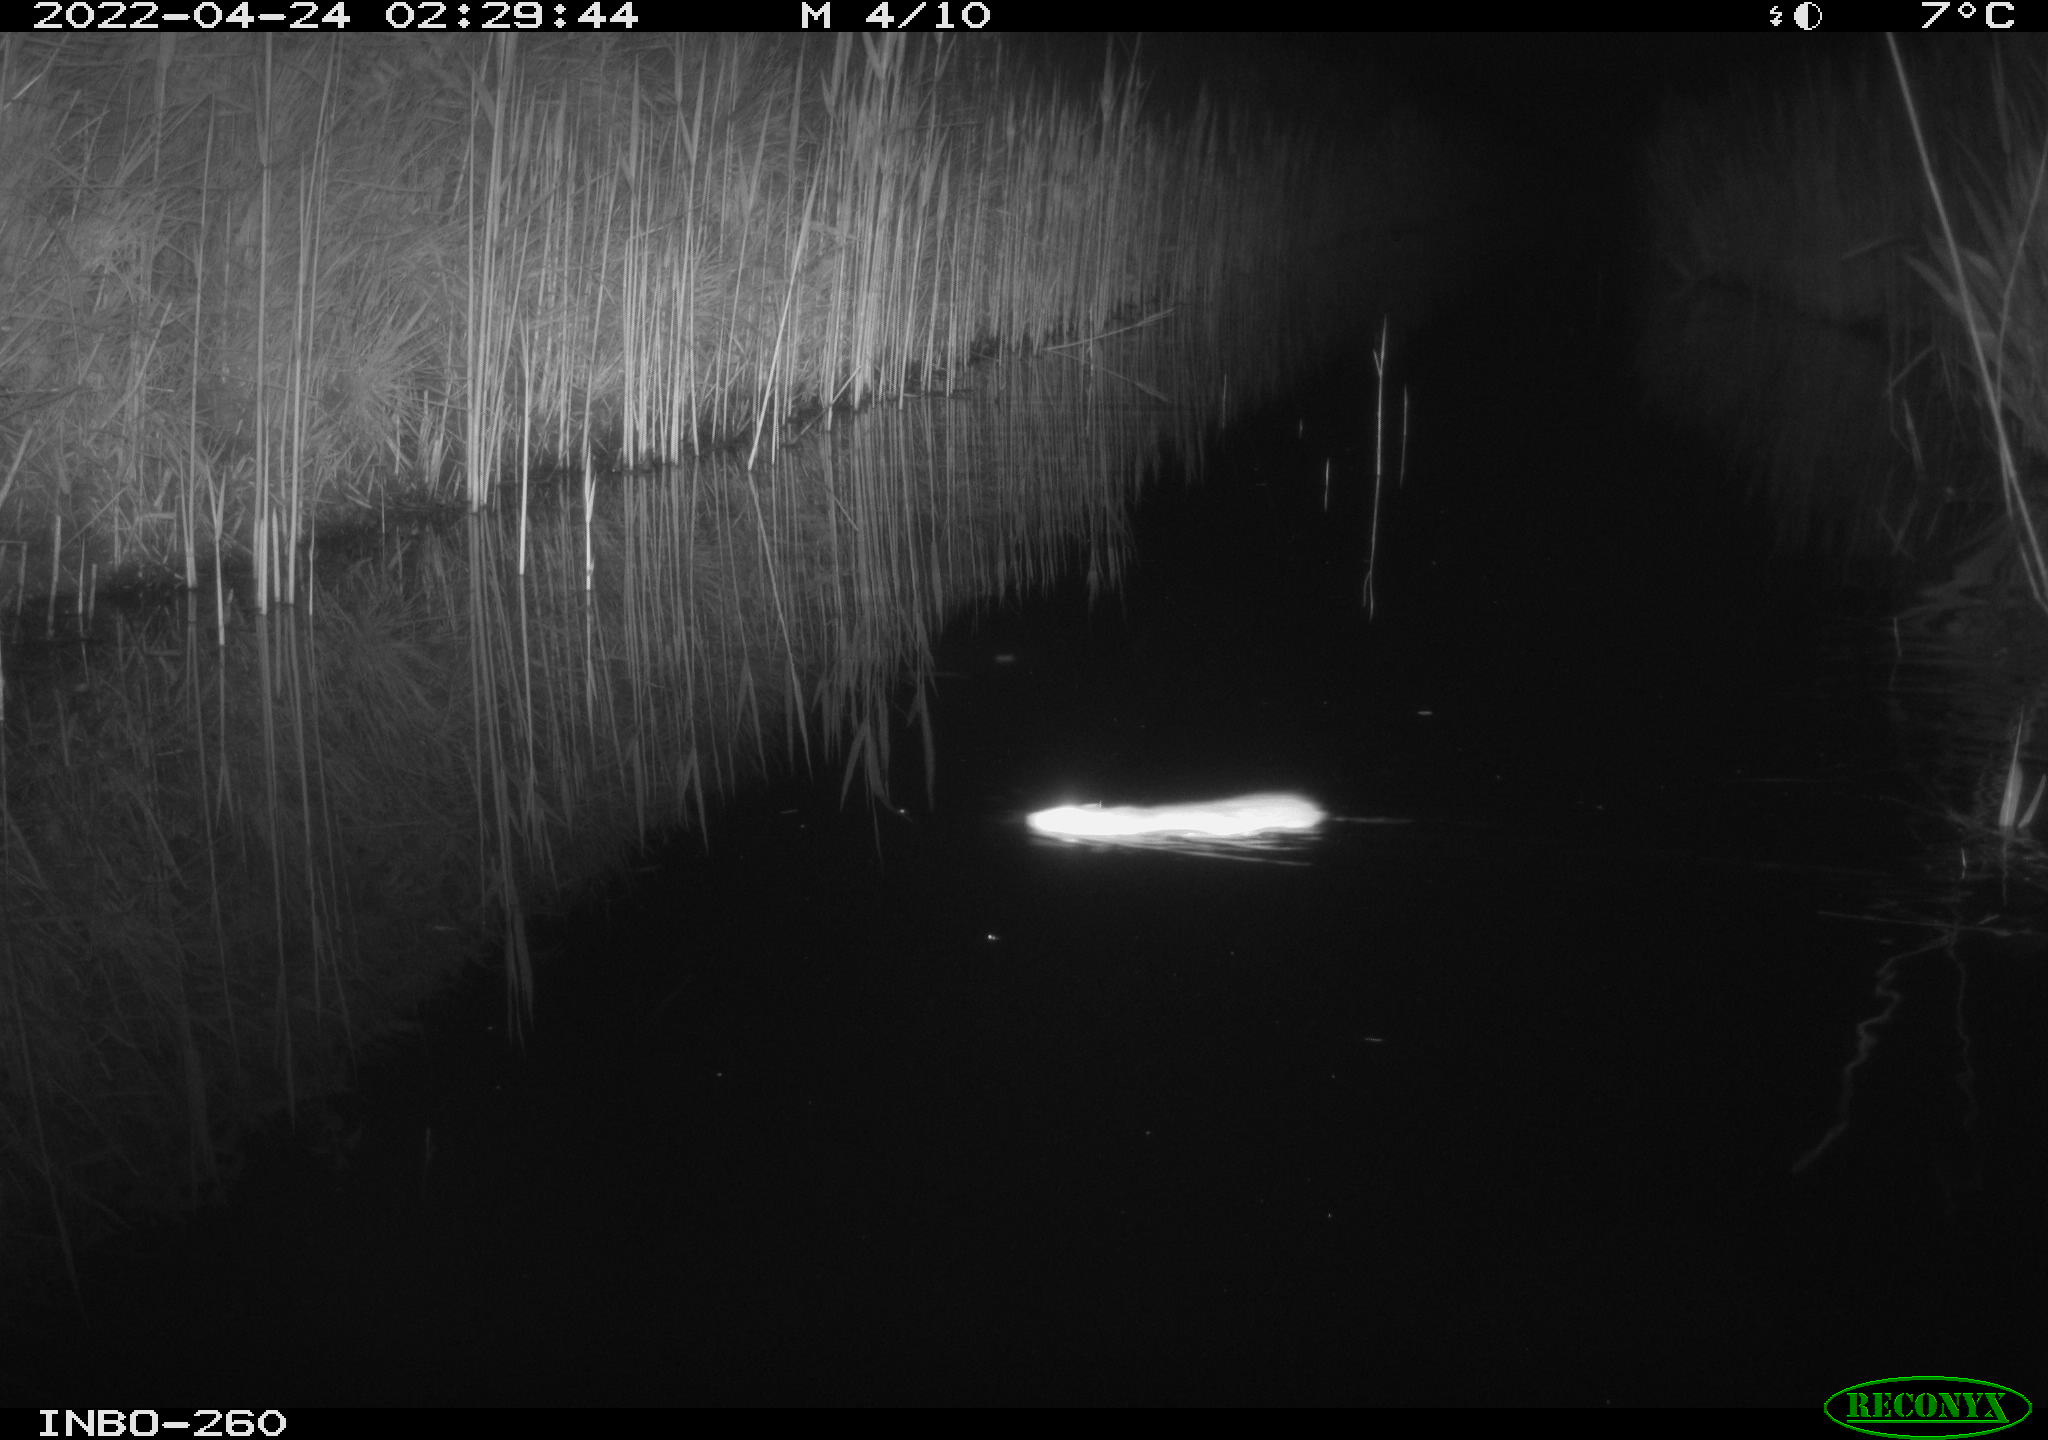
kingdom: Animalia
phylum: Chordata
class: Mammalia
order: Rodentia
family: Muridae
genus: Rattus
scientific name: Rattus norvegicus
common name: Brown rat
